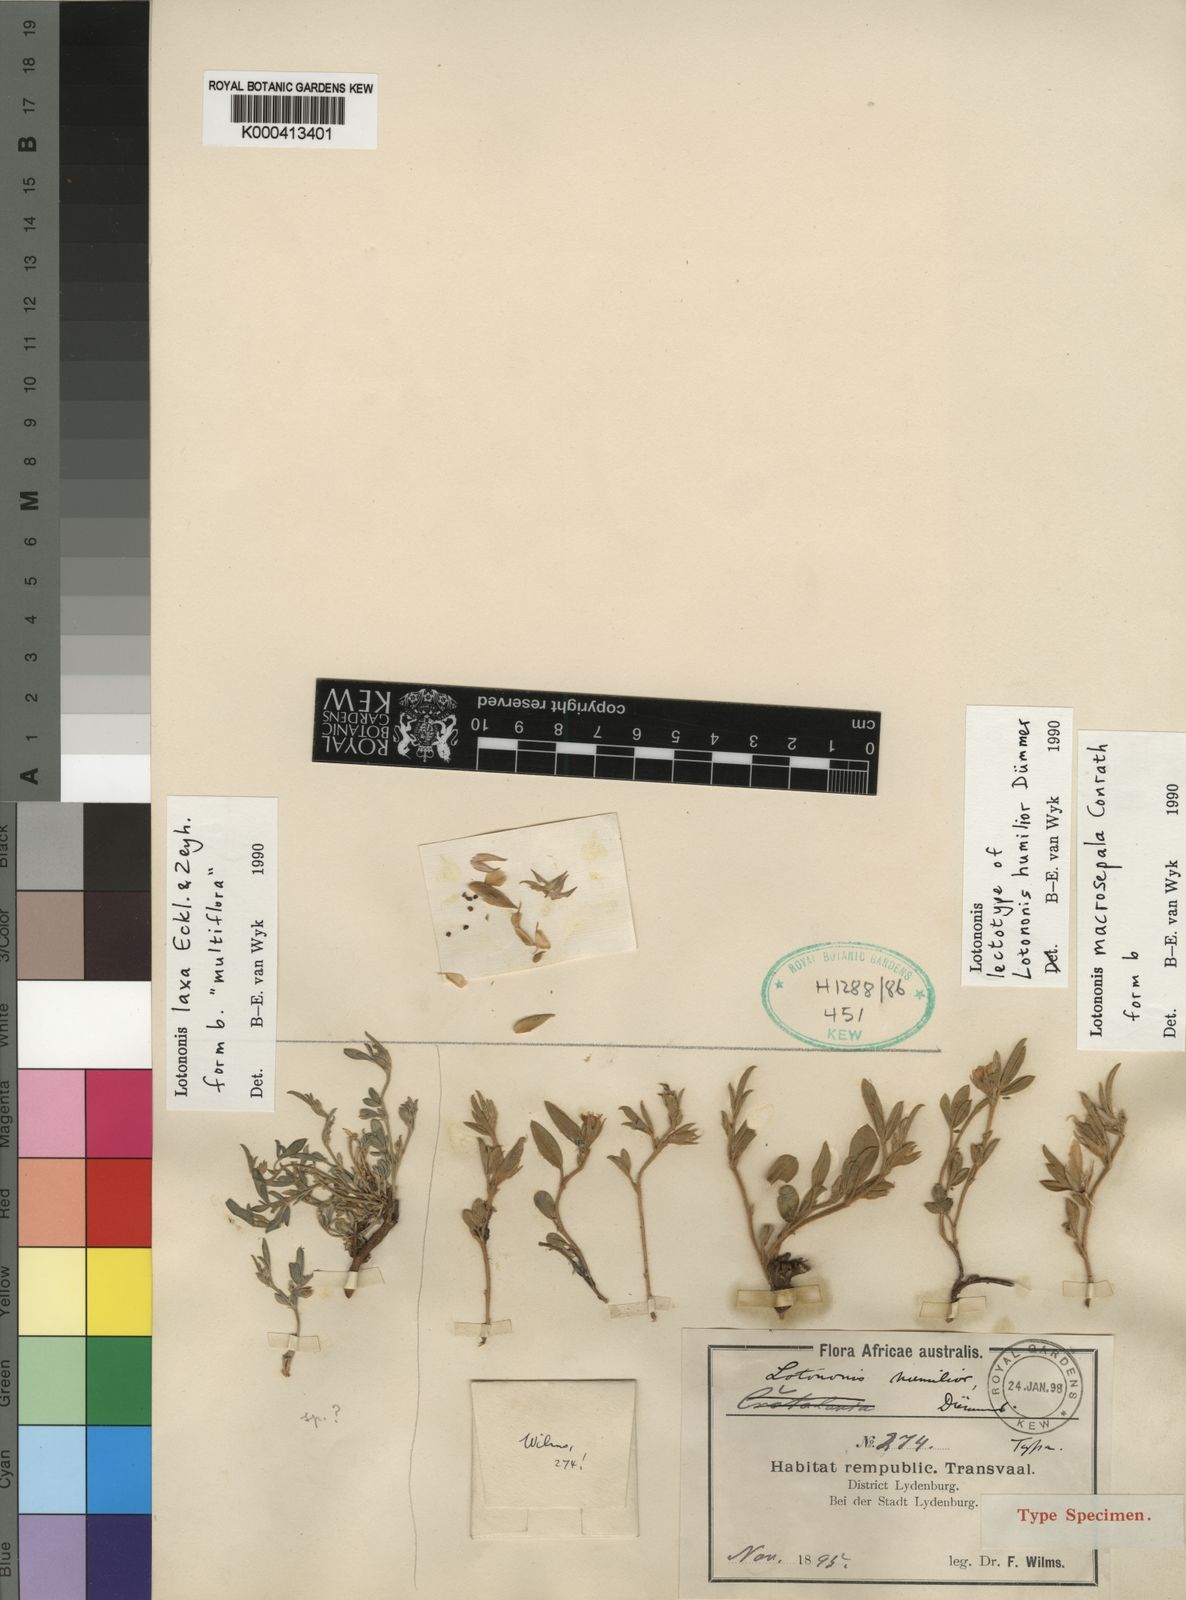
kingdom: Plantae
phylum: Tracheophyta
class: Magnoliopsida
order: Fabales
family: Fabaceae
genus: Lotononis
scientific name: Lotononis macrosepala
